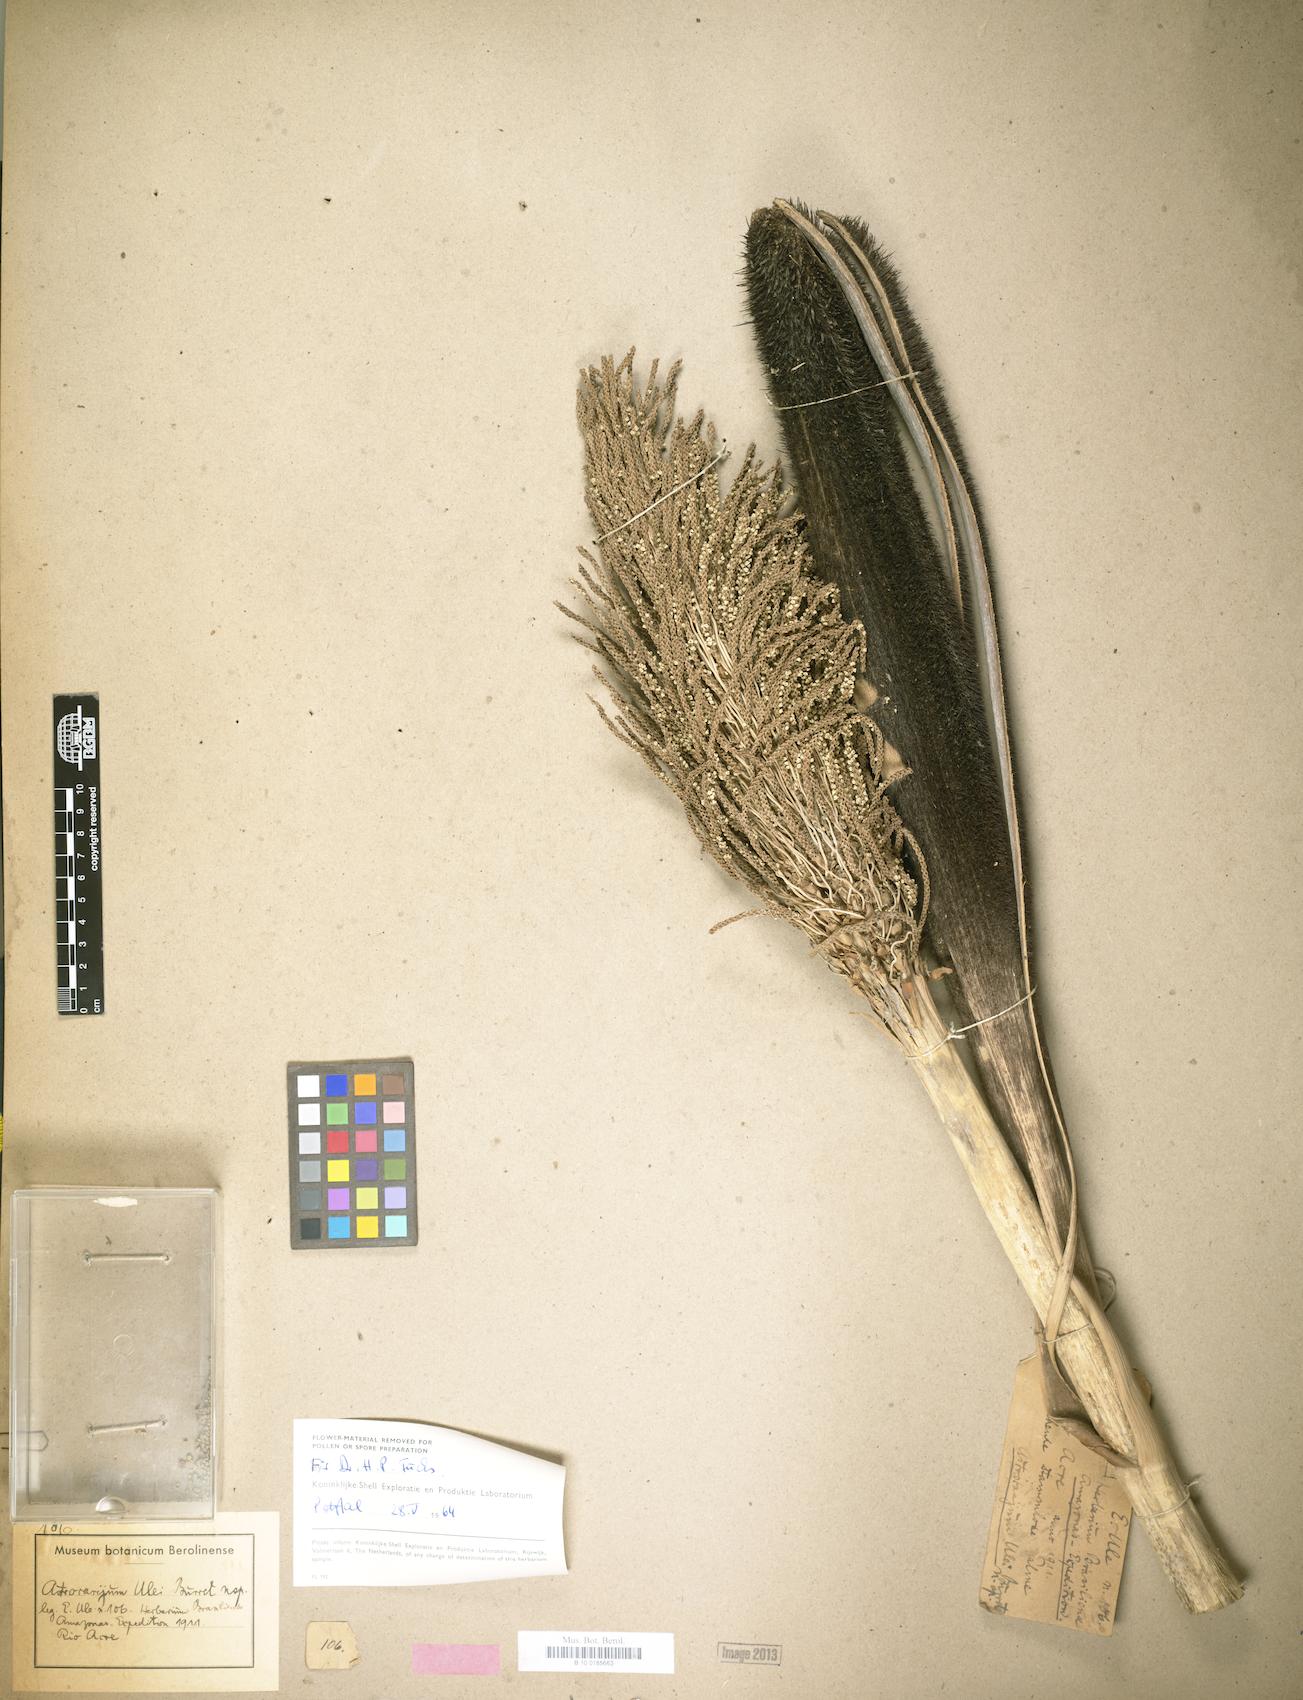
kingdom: Plantae
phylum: Tracheophyta
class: Liliopsida
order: Arecales
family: Arecaceae
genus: Astrocaryum
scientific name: Astrocaryum ulei
